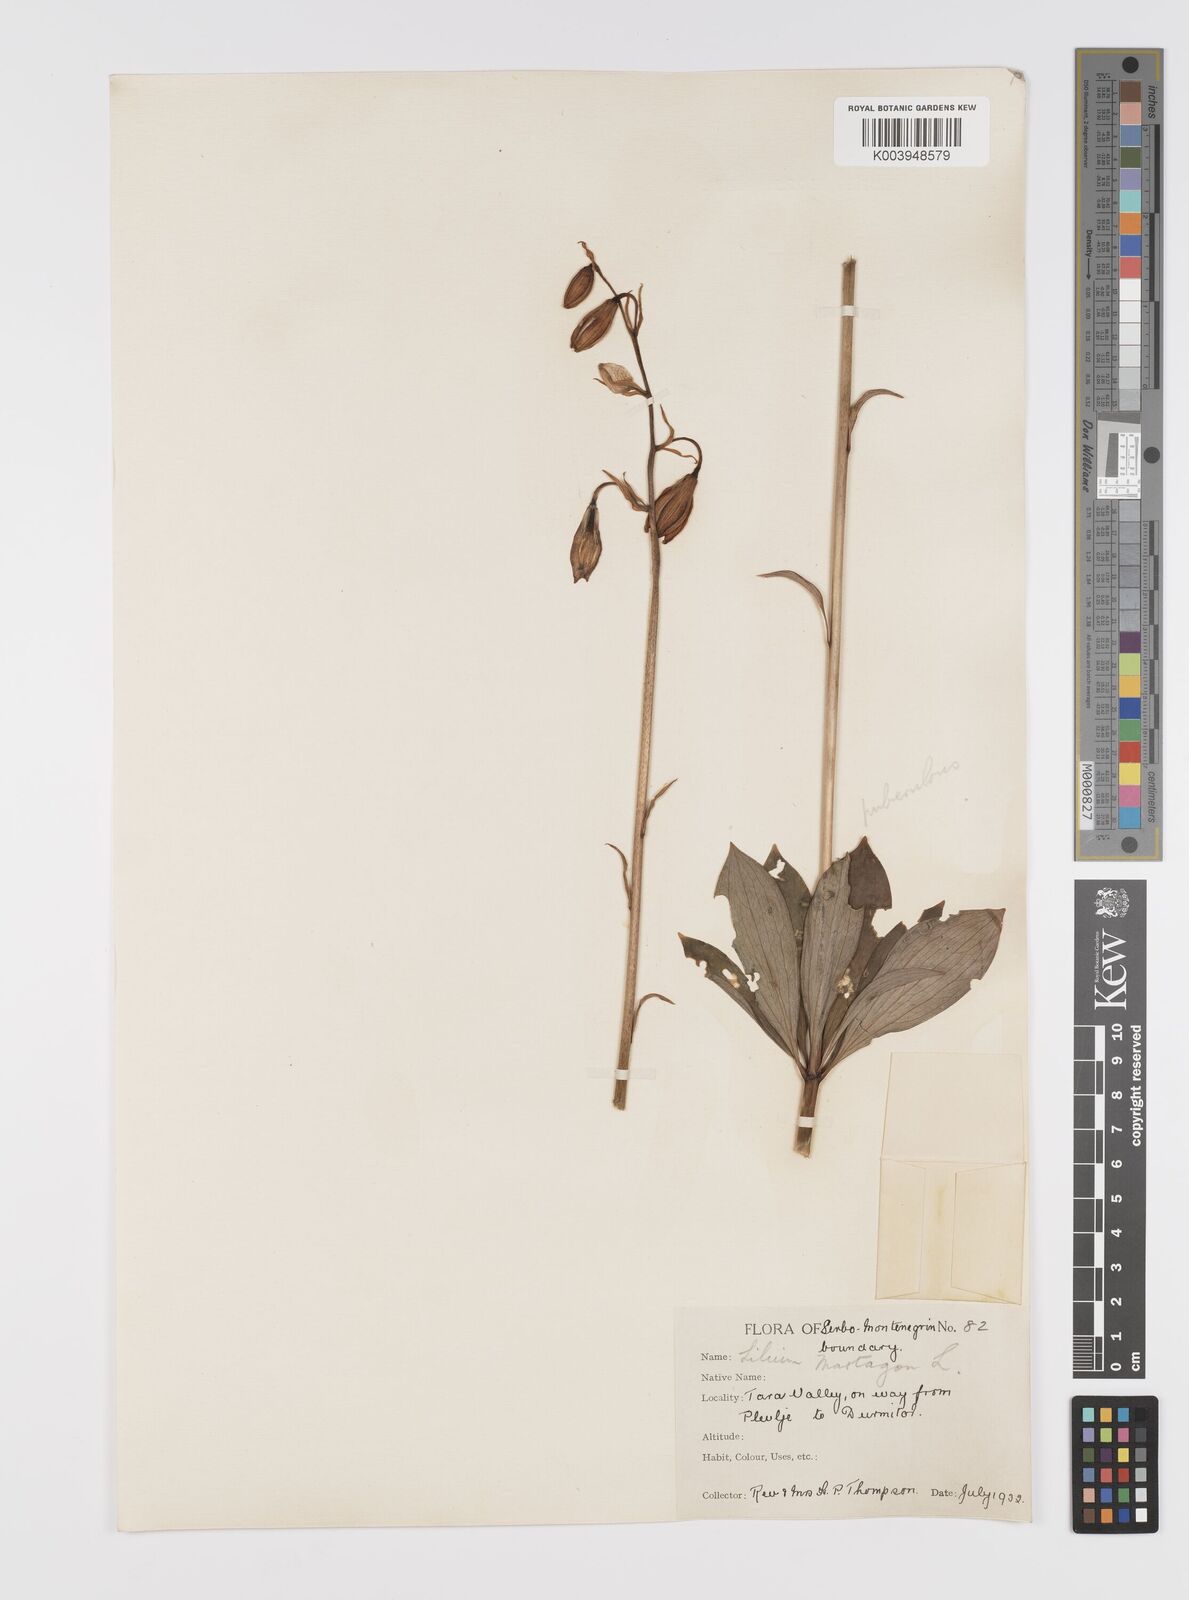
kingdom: Plantae
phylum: Tracheophyta
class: Liliopsida
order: Liliales
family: Liliaceae
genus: Lilium
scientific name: Lilium martagon
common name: Martagon lily
